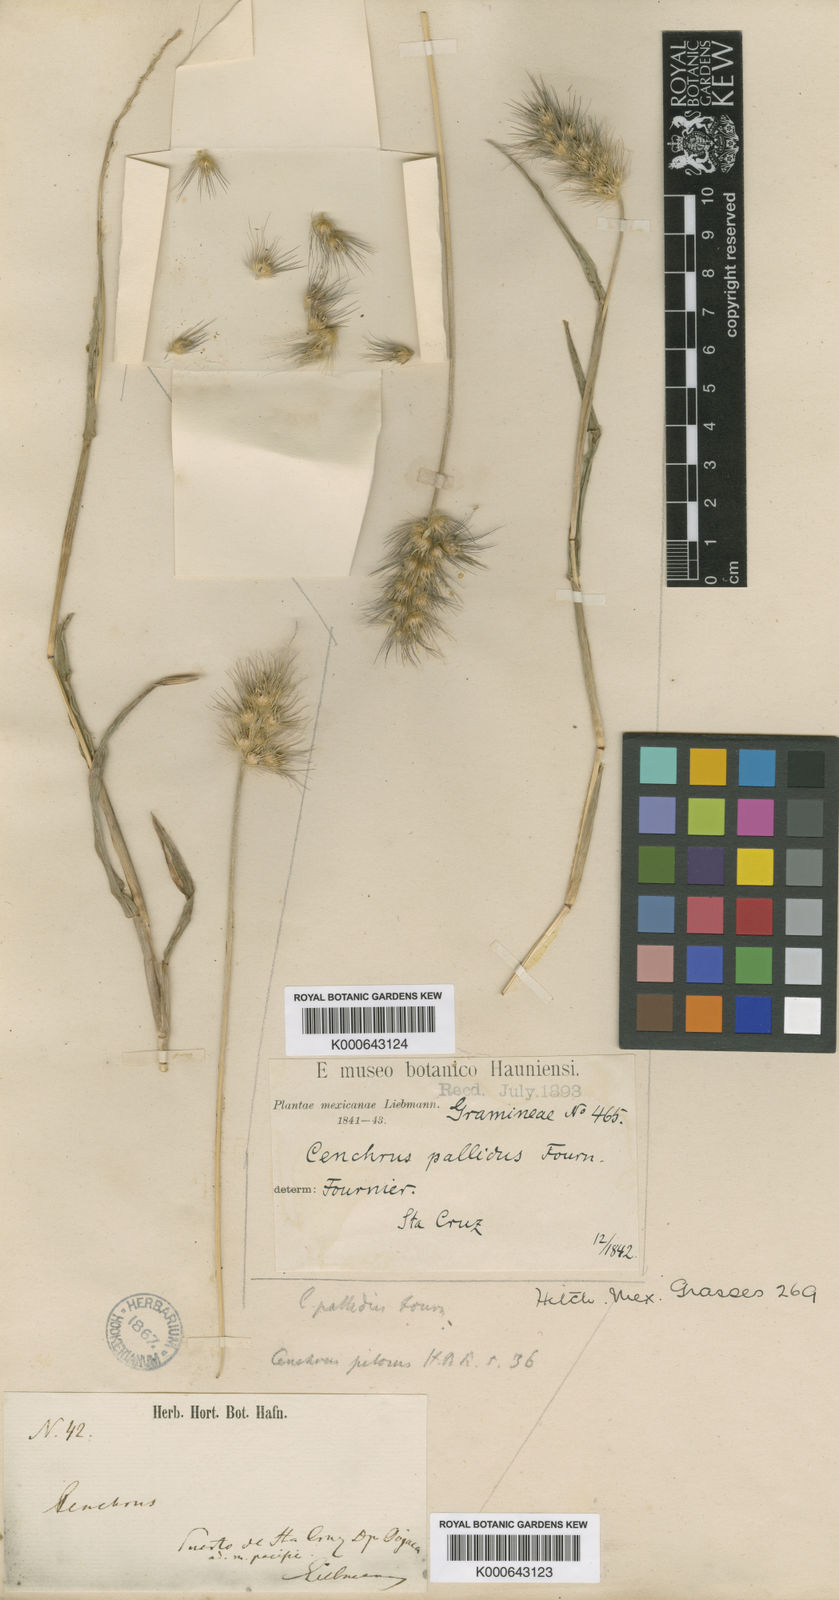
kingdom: Plantae
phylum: Tracheophyta
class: Liliopsida
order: Poales
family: Poaceae
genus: Cenchrus
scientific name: Cenchrus
